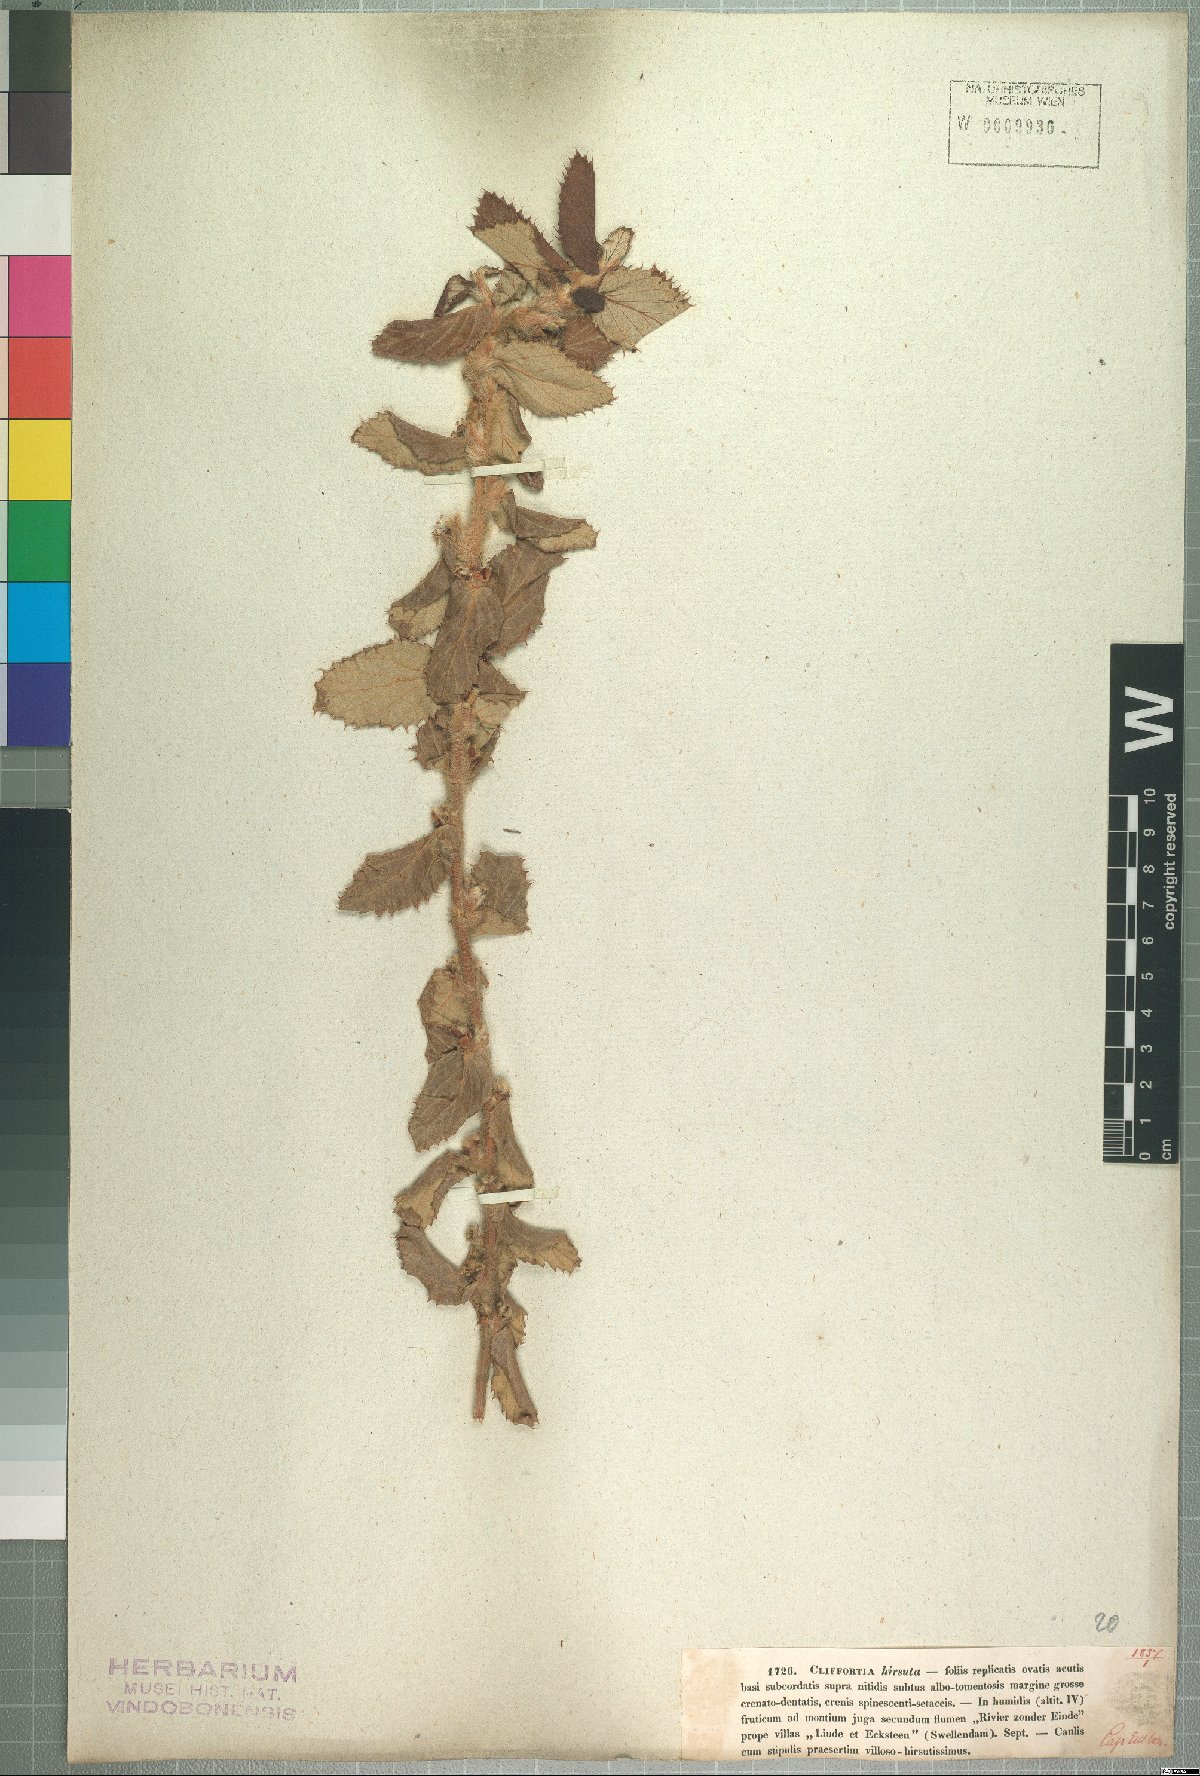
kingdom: Plantae
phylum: Tracheophyta
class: Magnoliopsida
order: Rosales
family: Rosaceae
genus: Cliffortia
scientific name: Cliffortia hirsuta
